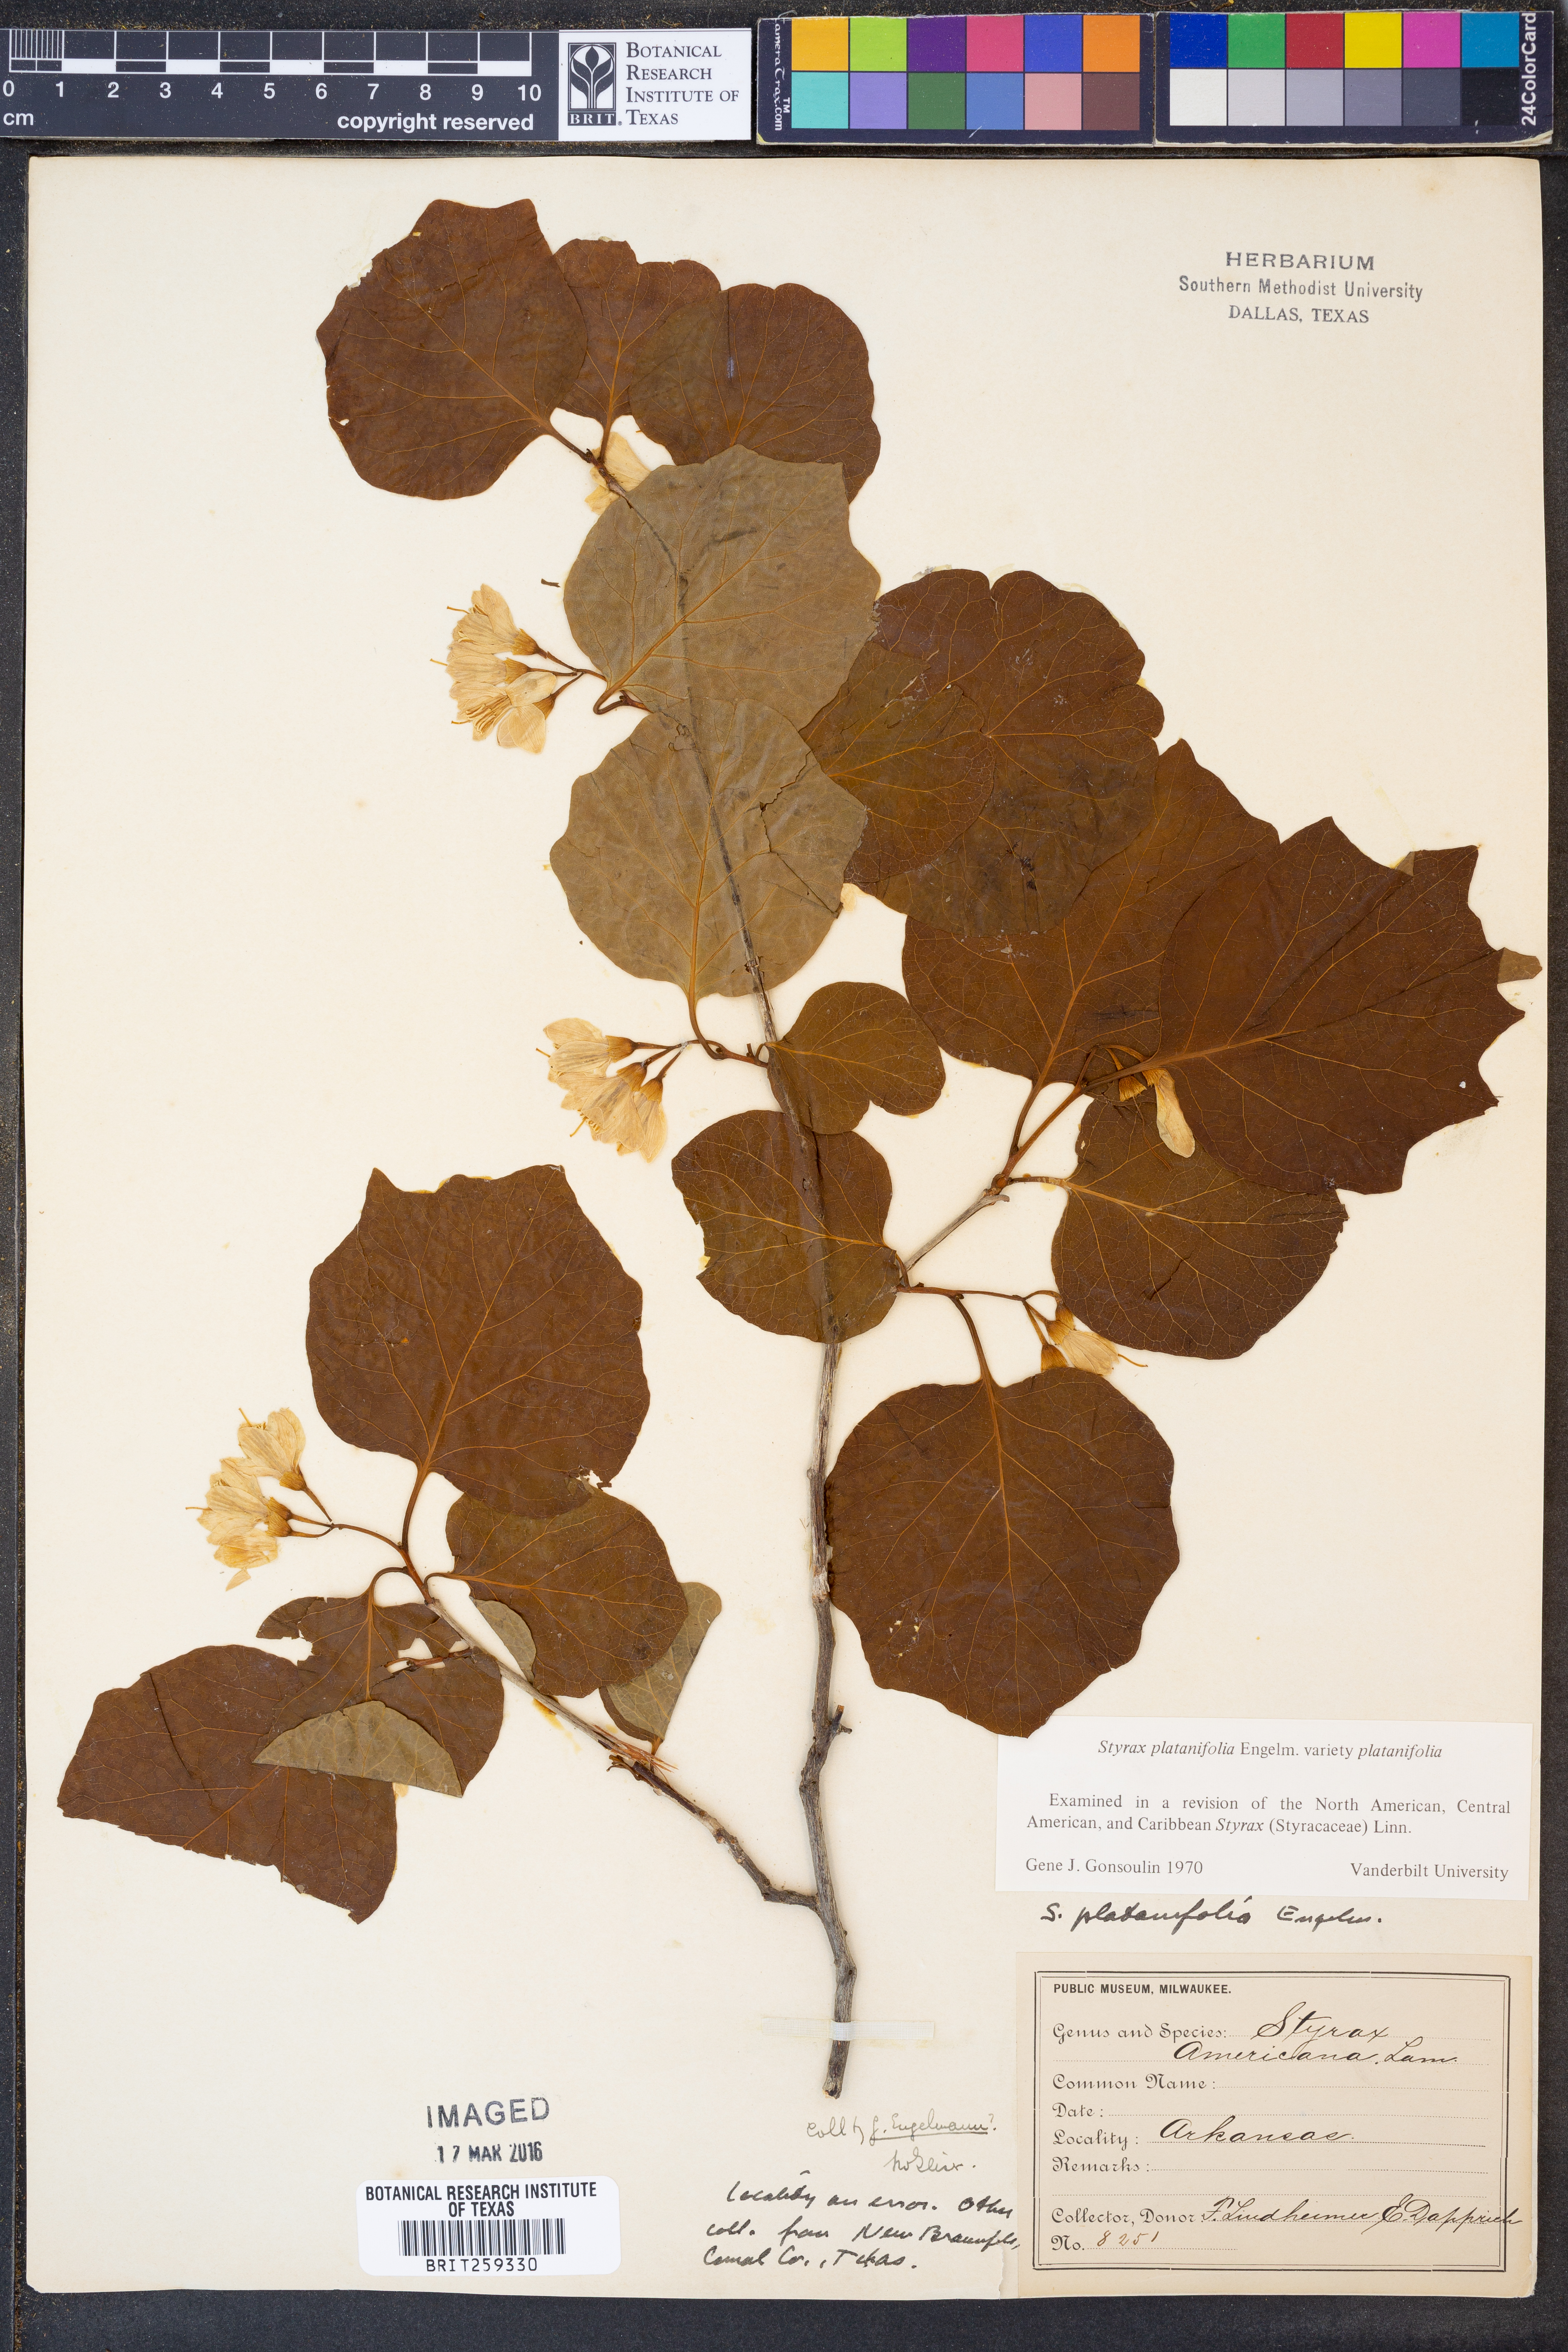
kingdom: Plantae
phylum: Tracheophyta
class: Magnoliopsida
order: Ericales
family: Styracaceae
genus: Styrax
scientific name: Styrax platanifolius
